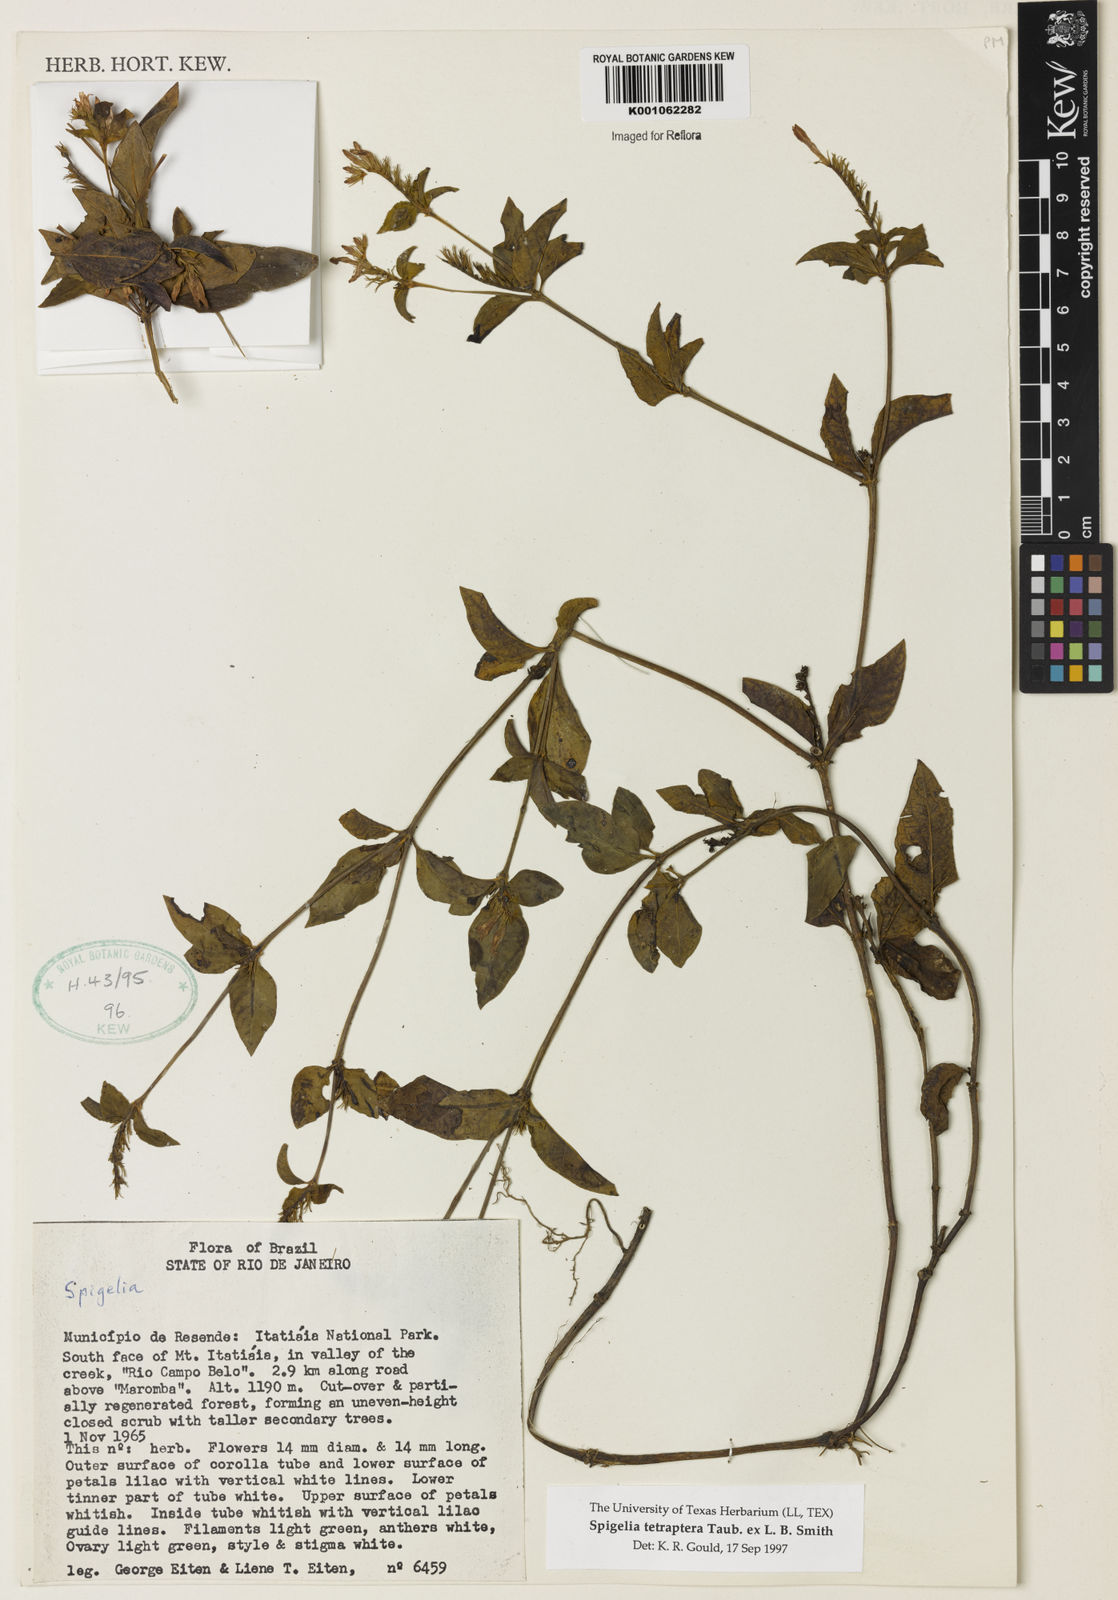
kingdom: Plantae
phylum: Tracheophyta
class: Magnoliopsida
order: Gentianales
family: Loganiaceae
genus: Spigelia
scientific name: Spigelia tetraptera
